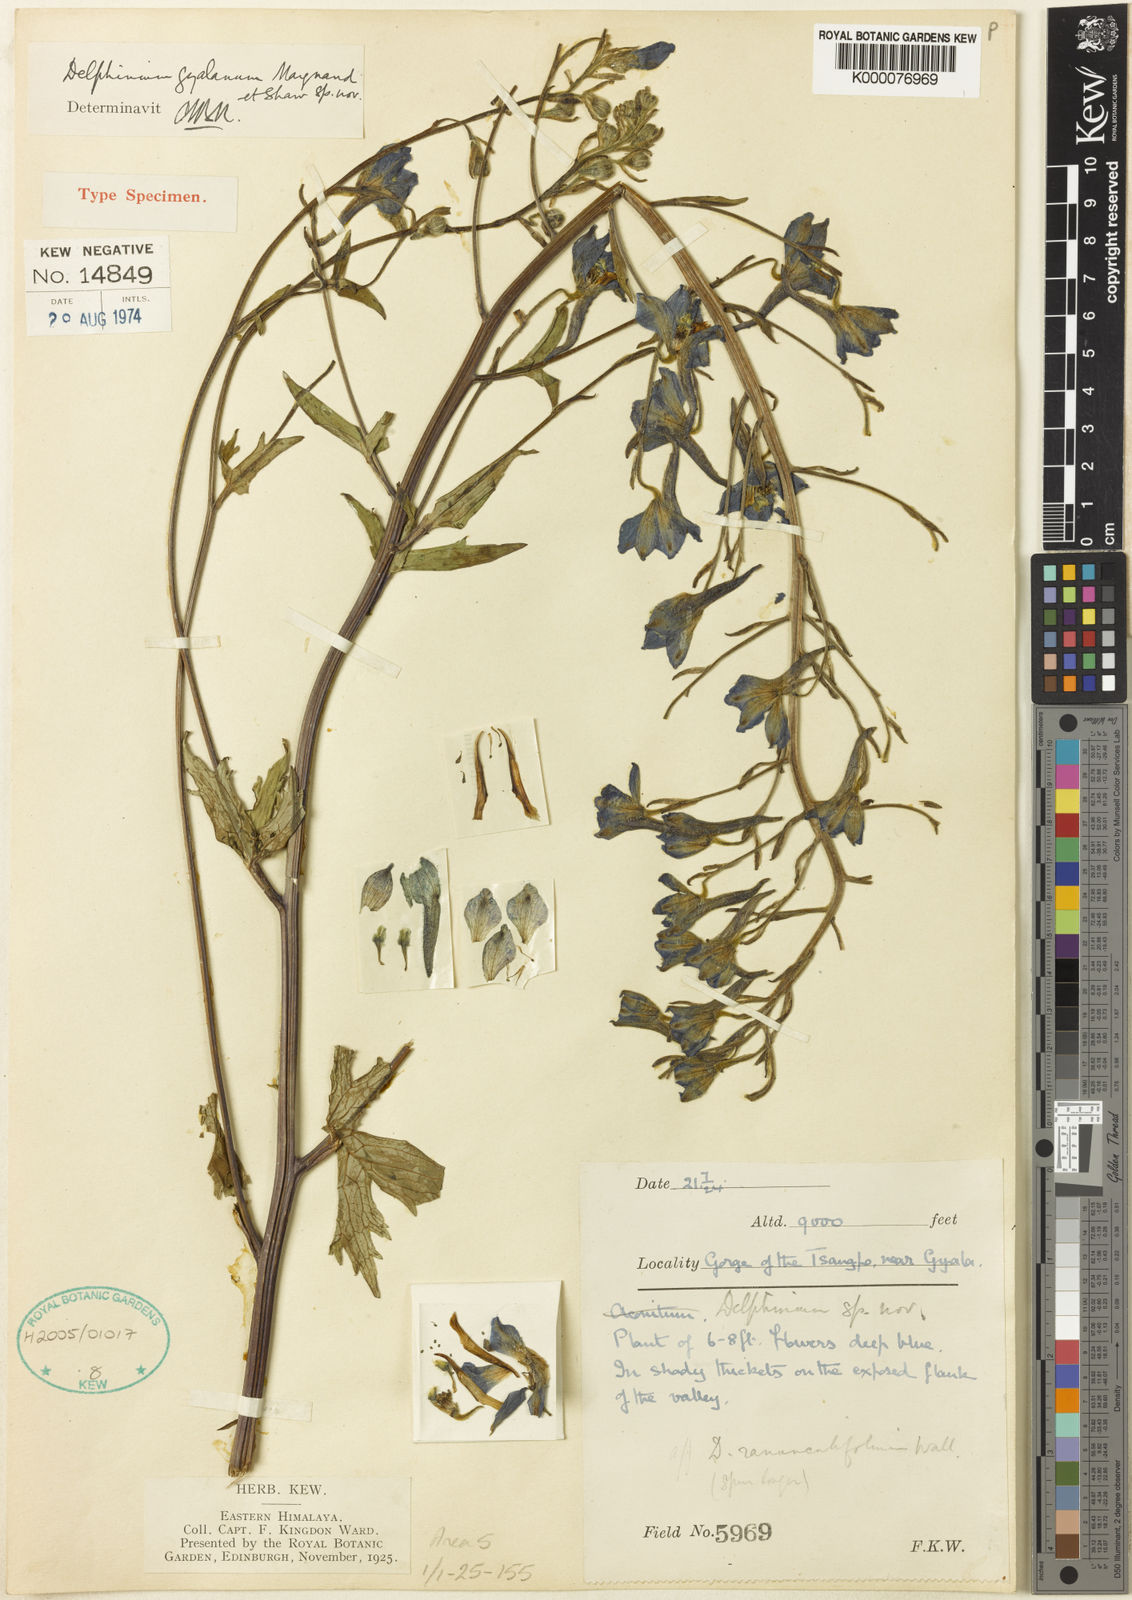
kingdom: Plantae
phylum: Tracheophyta
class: Magnoliopsida
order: Ranunculales
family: Ranunculaceae
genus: Delphinium
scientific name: Delphinium gyalanum
